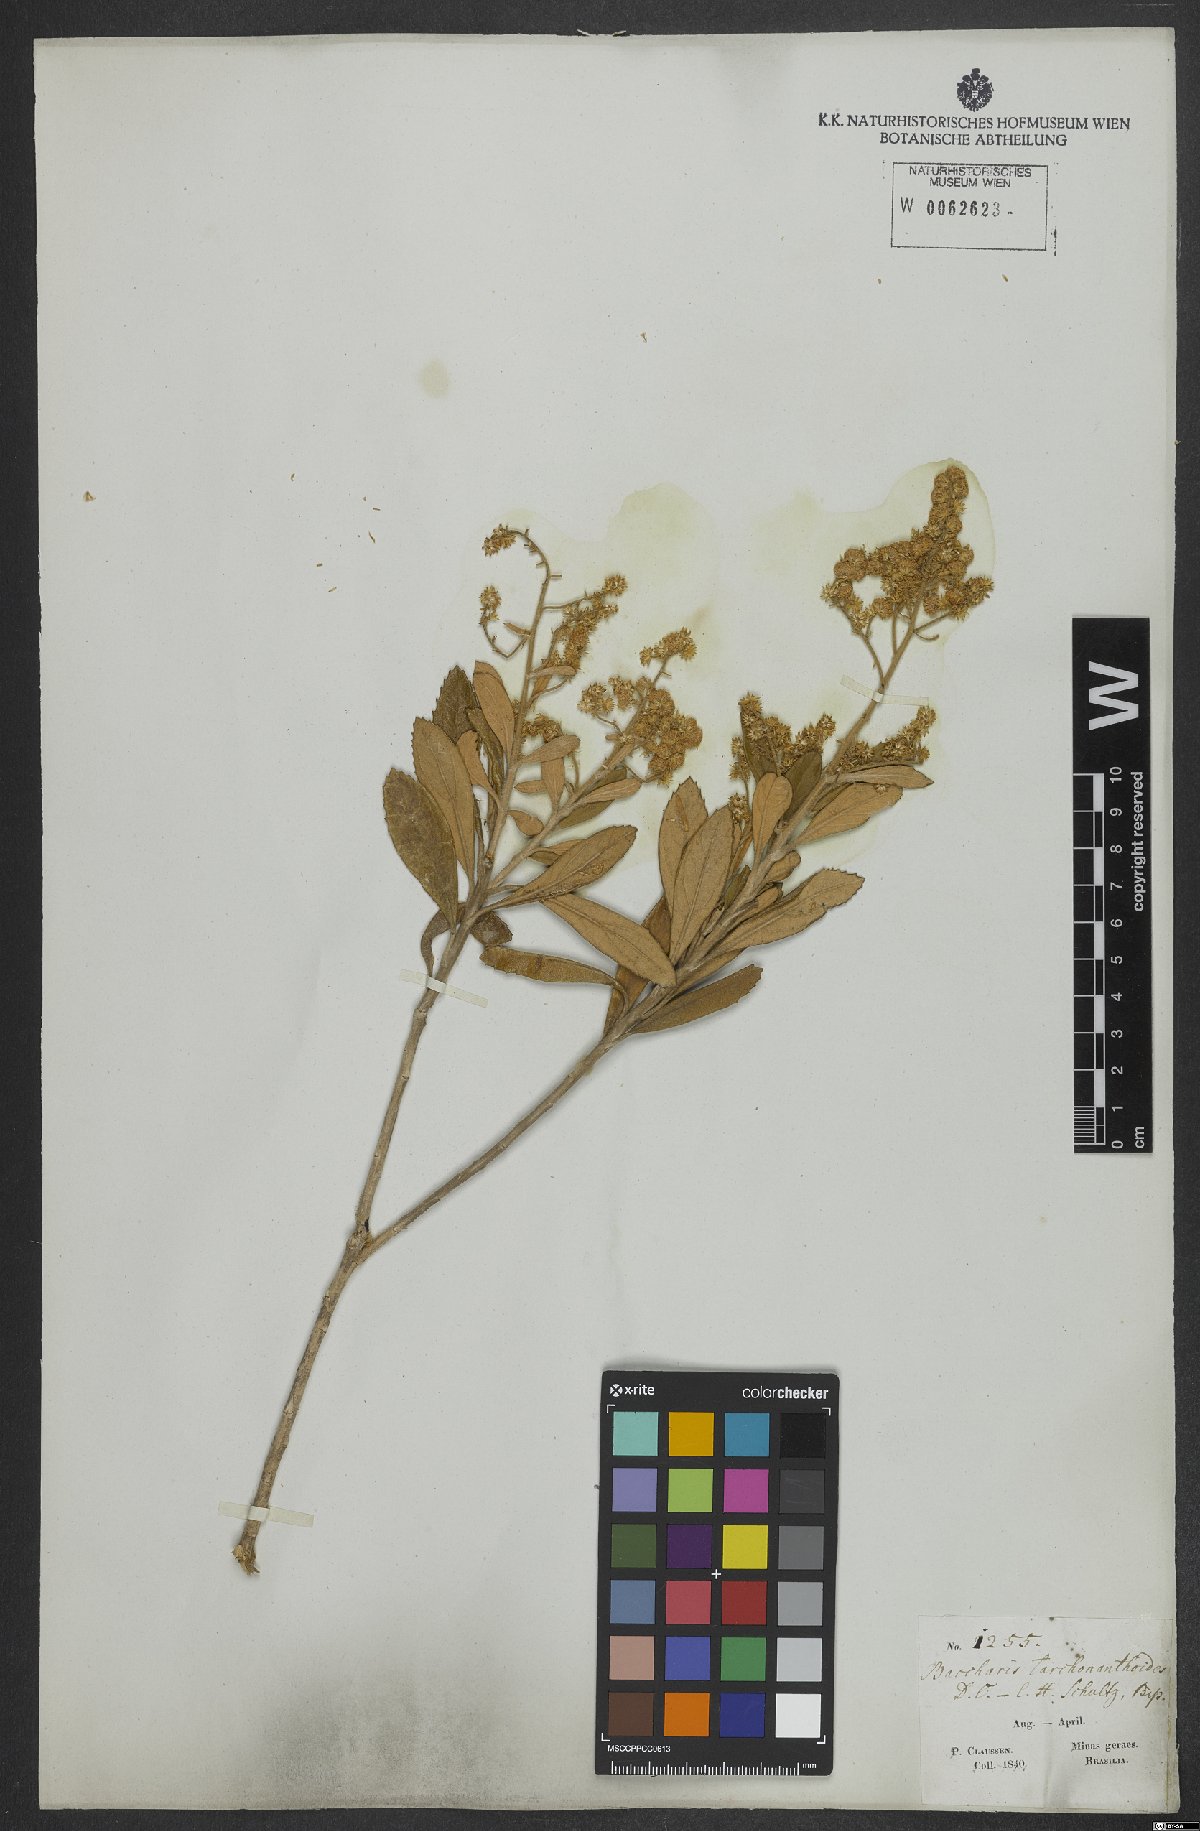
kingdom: Plantae
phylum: Tracheophyta
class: Magnoliopsida
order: Asterales
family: Asteraceae
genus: Baccharis
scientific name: Baccharis tarchonanthoides
